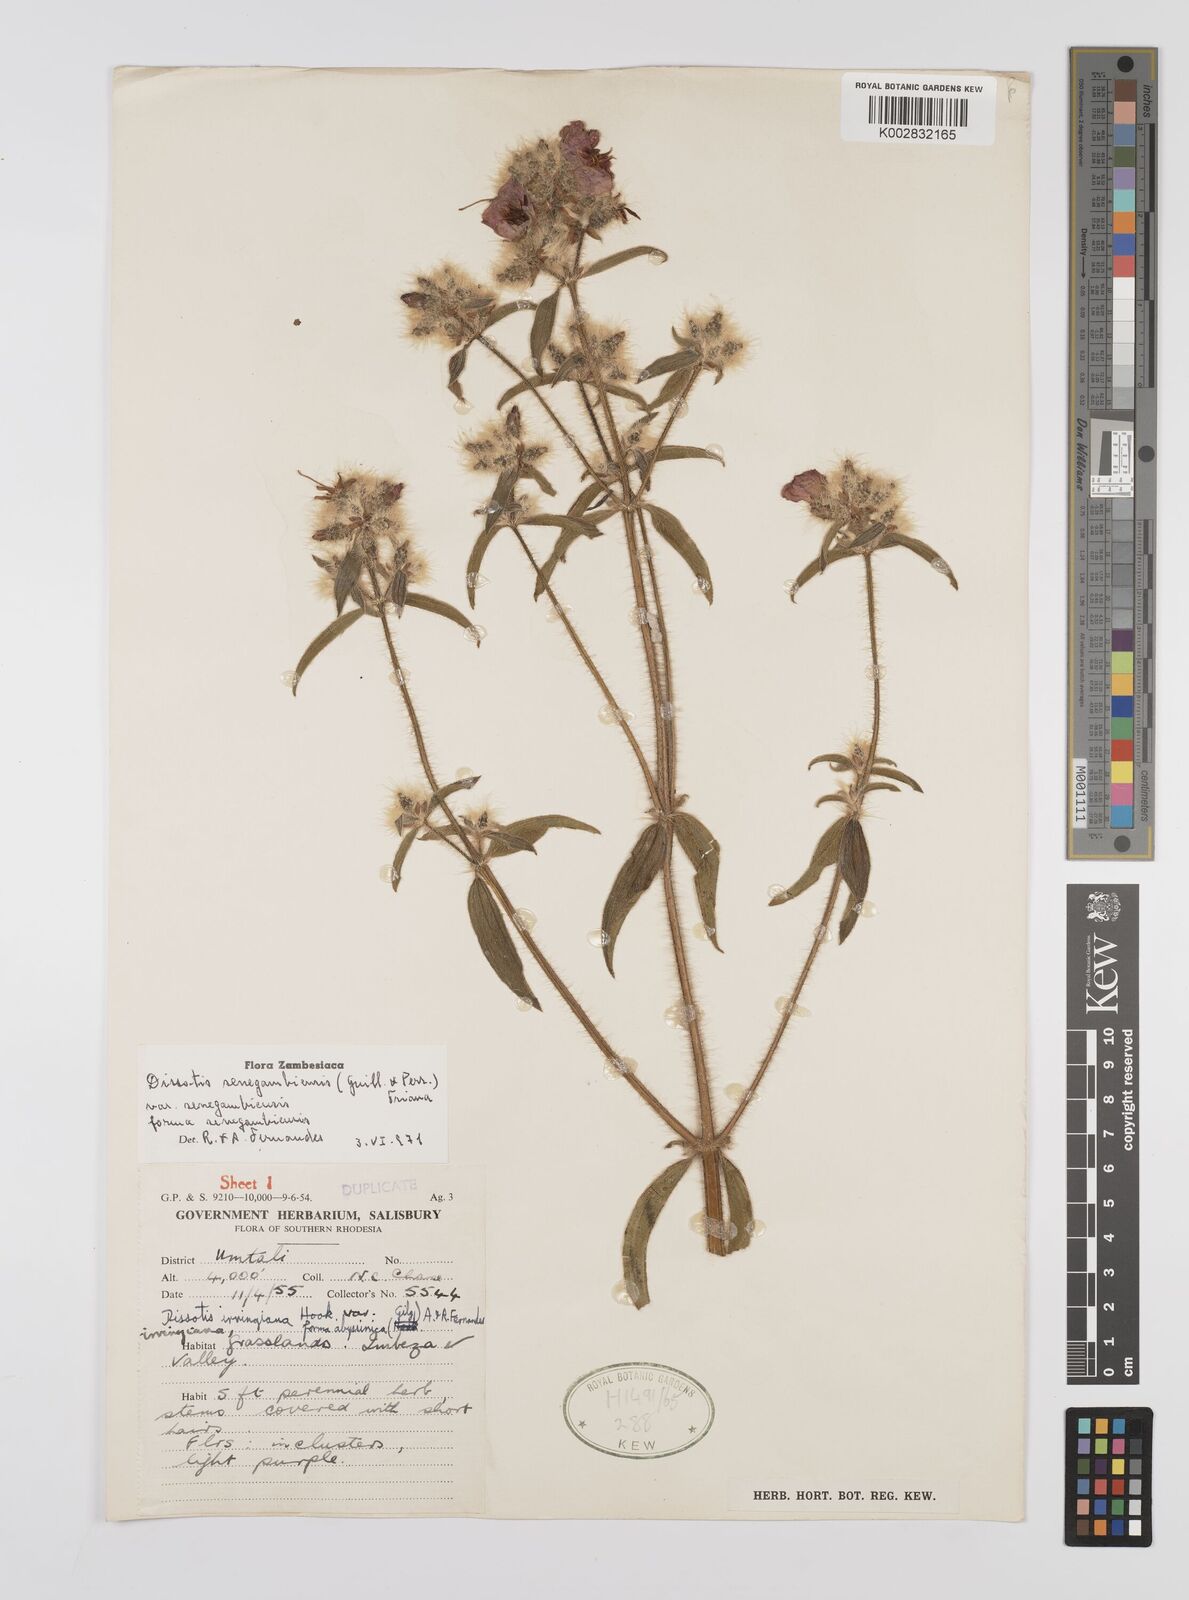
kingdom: Plantae
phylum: Tracheophyta
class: Magnoliopsida
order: Myrtales
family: Melastomataceae
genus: Nerophila
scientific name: Nerophila senegambiensis
